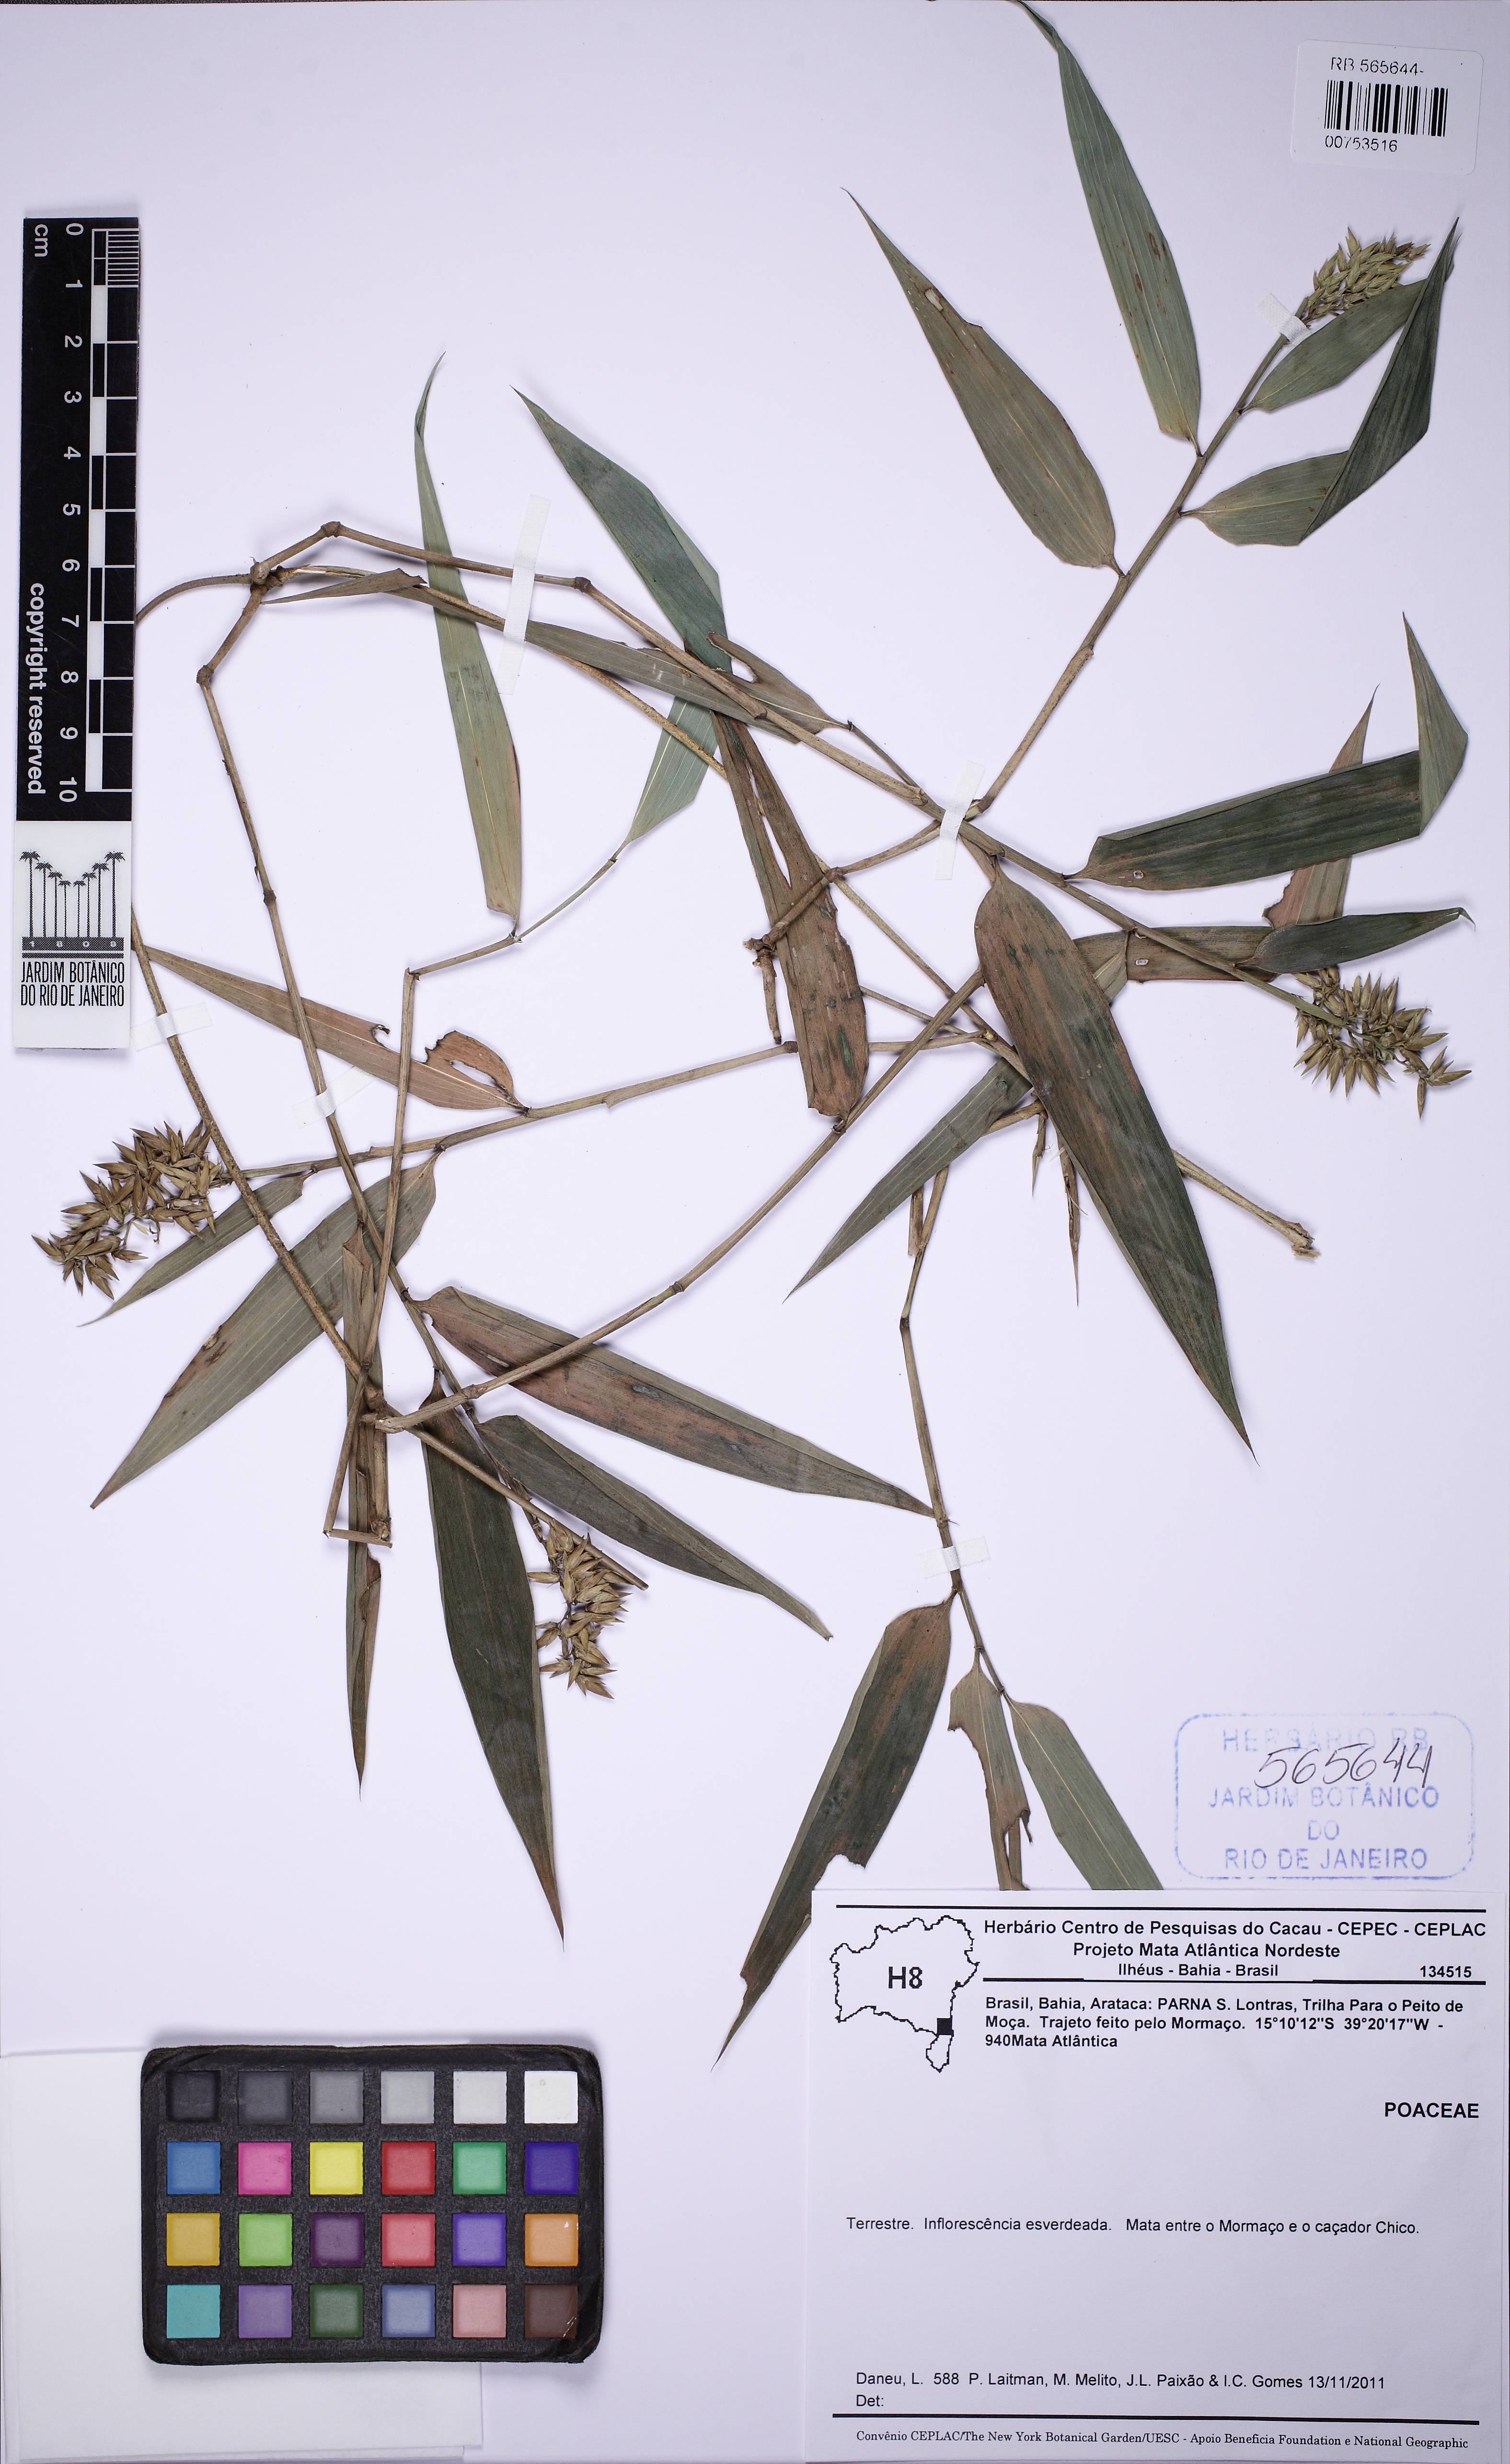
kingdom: Plantae
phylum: Tracheophyta
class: Liliopsida
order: Poales
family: Poaceae
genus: Chusquea
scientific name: Chusquea oxylepis
